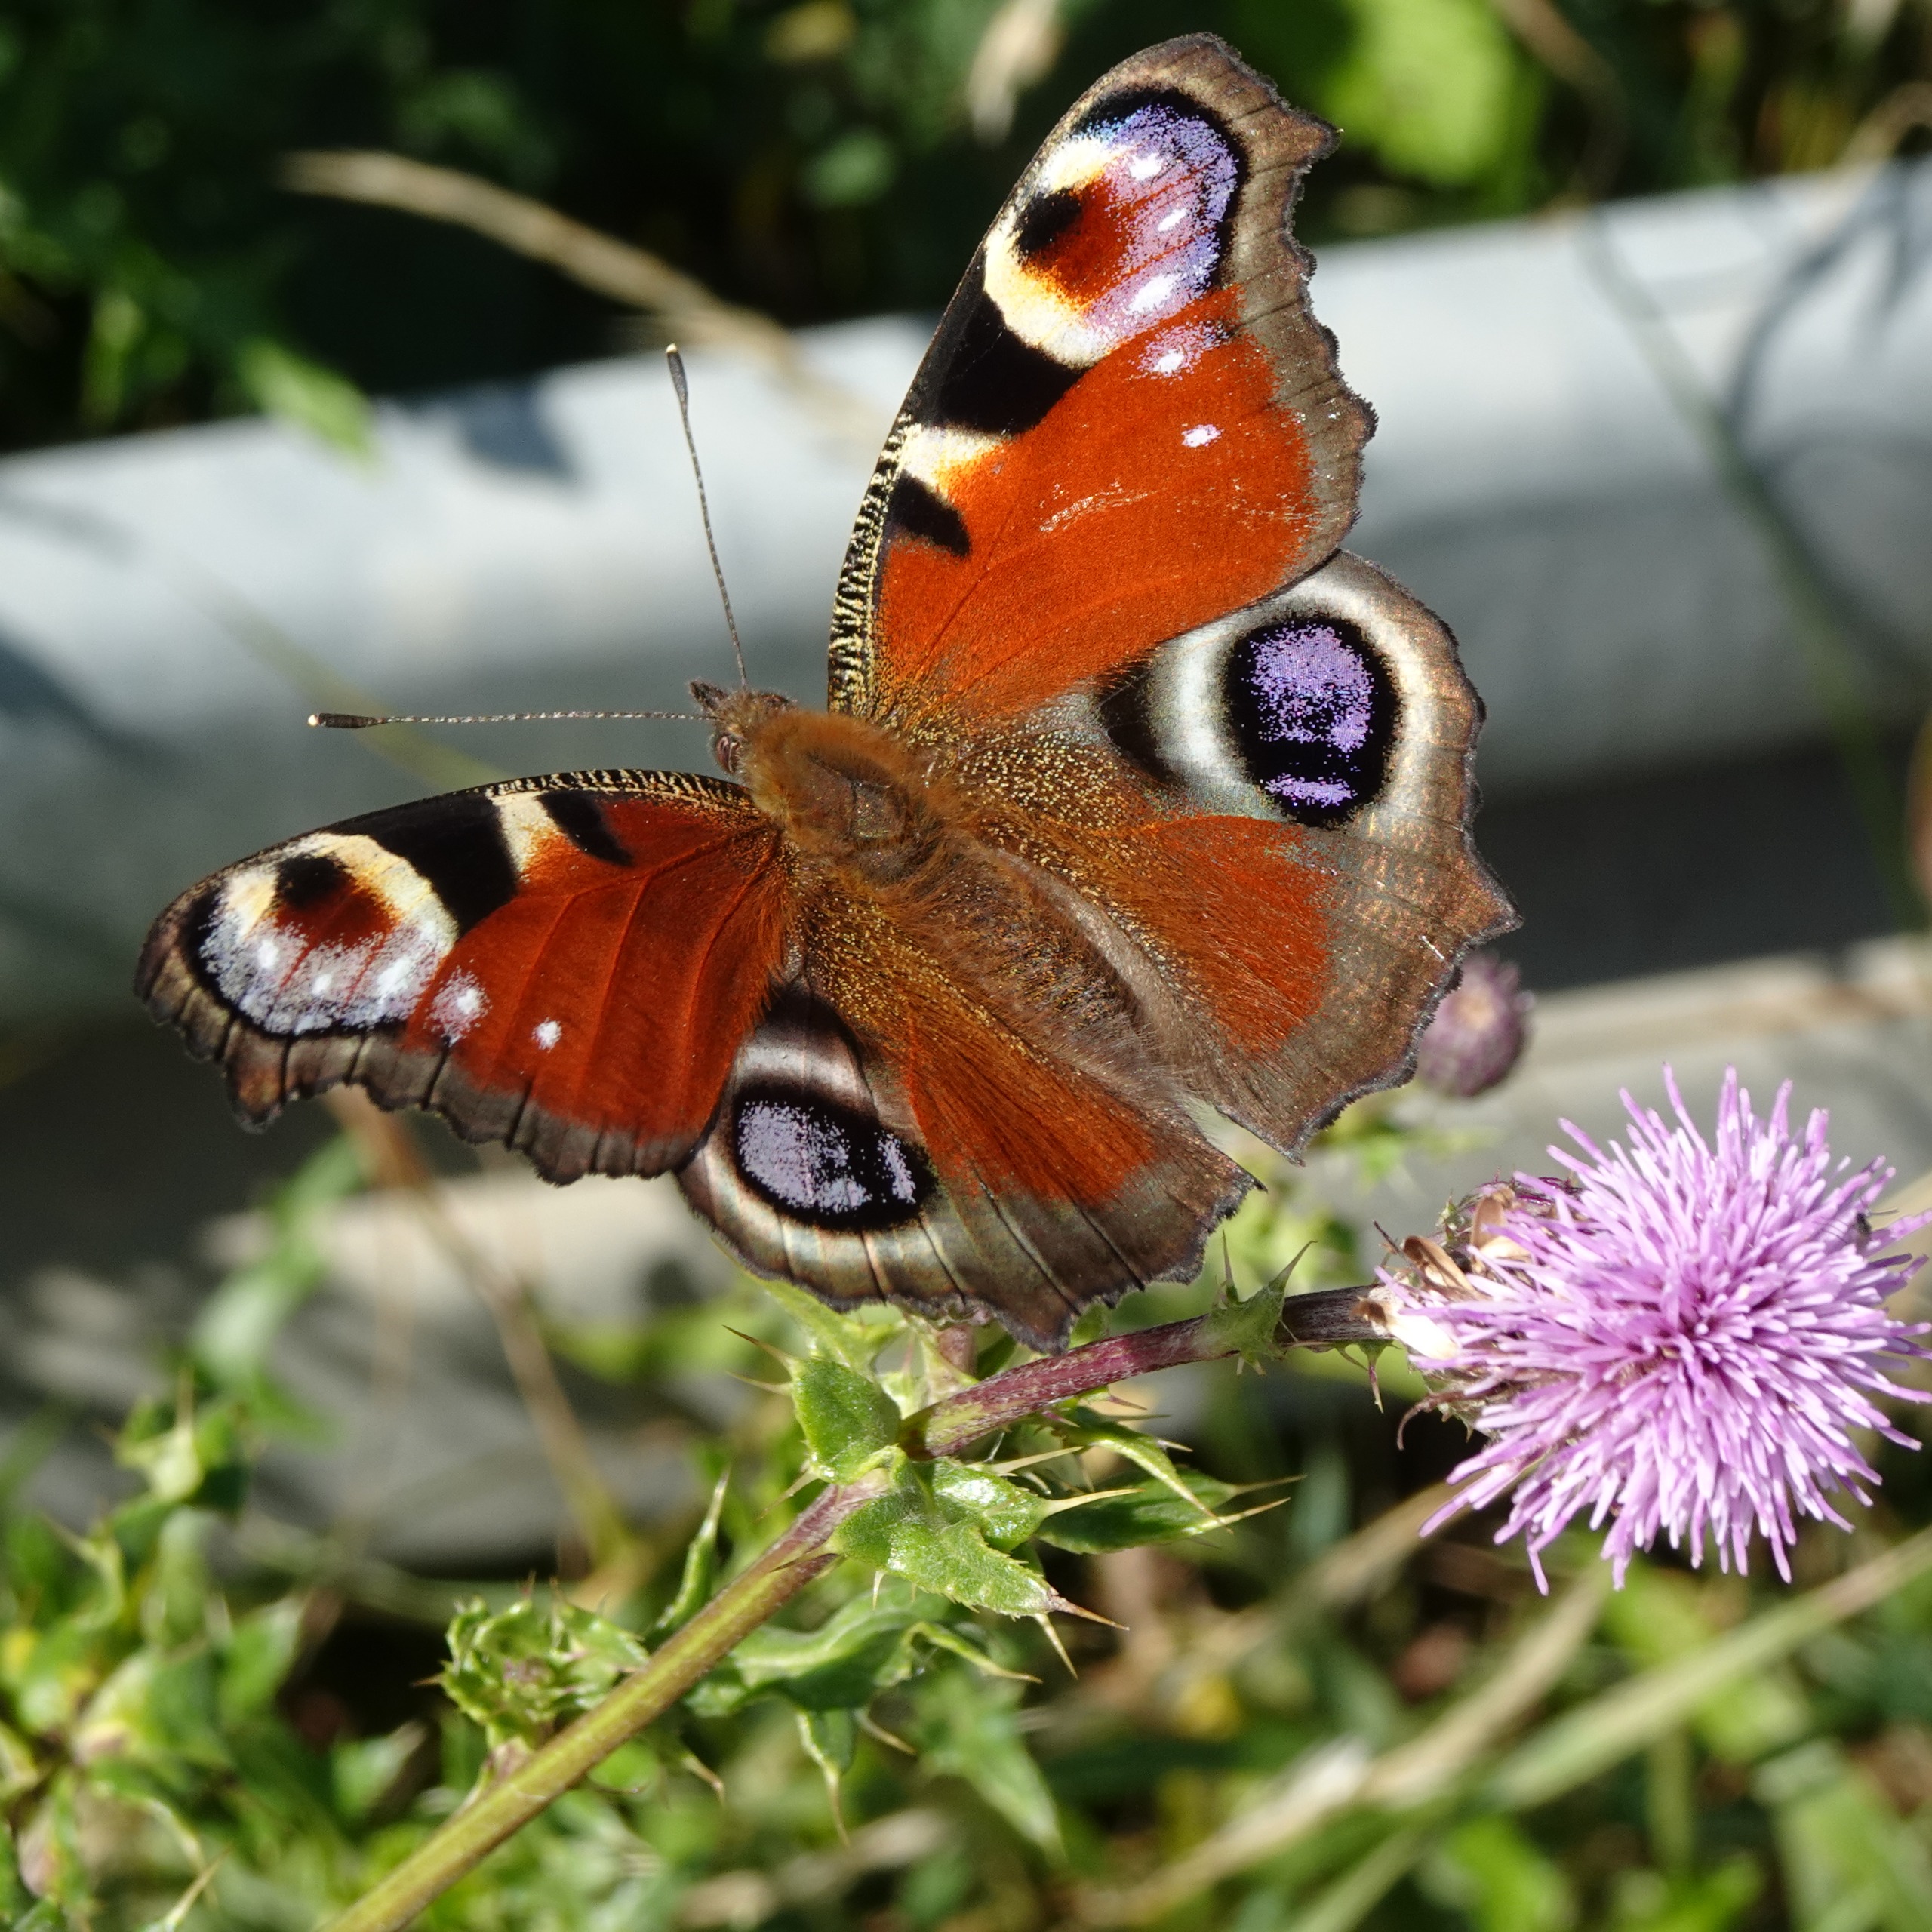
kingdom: Animalia
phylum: Arthropoda
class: Insecta
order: Lepidoptera
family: Nymphalidae
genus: Aglais
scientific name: Aglais io
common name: Dagpåfugleøje
